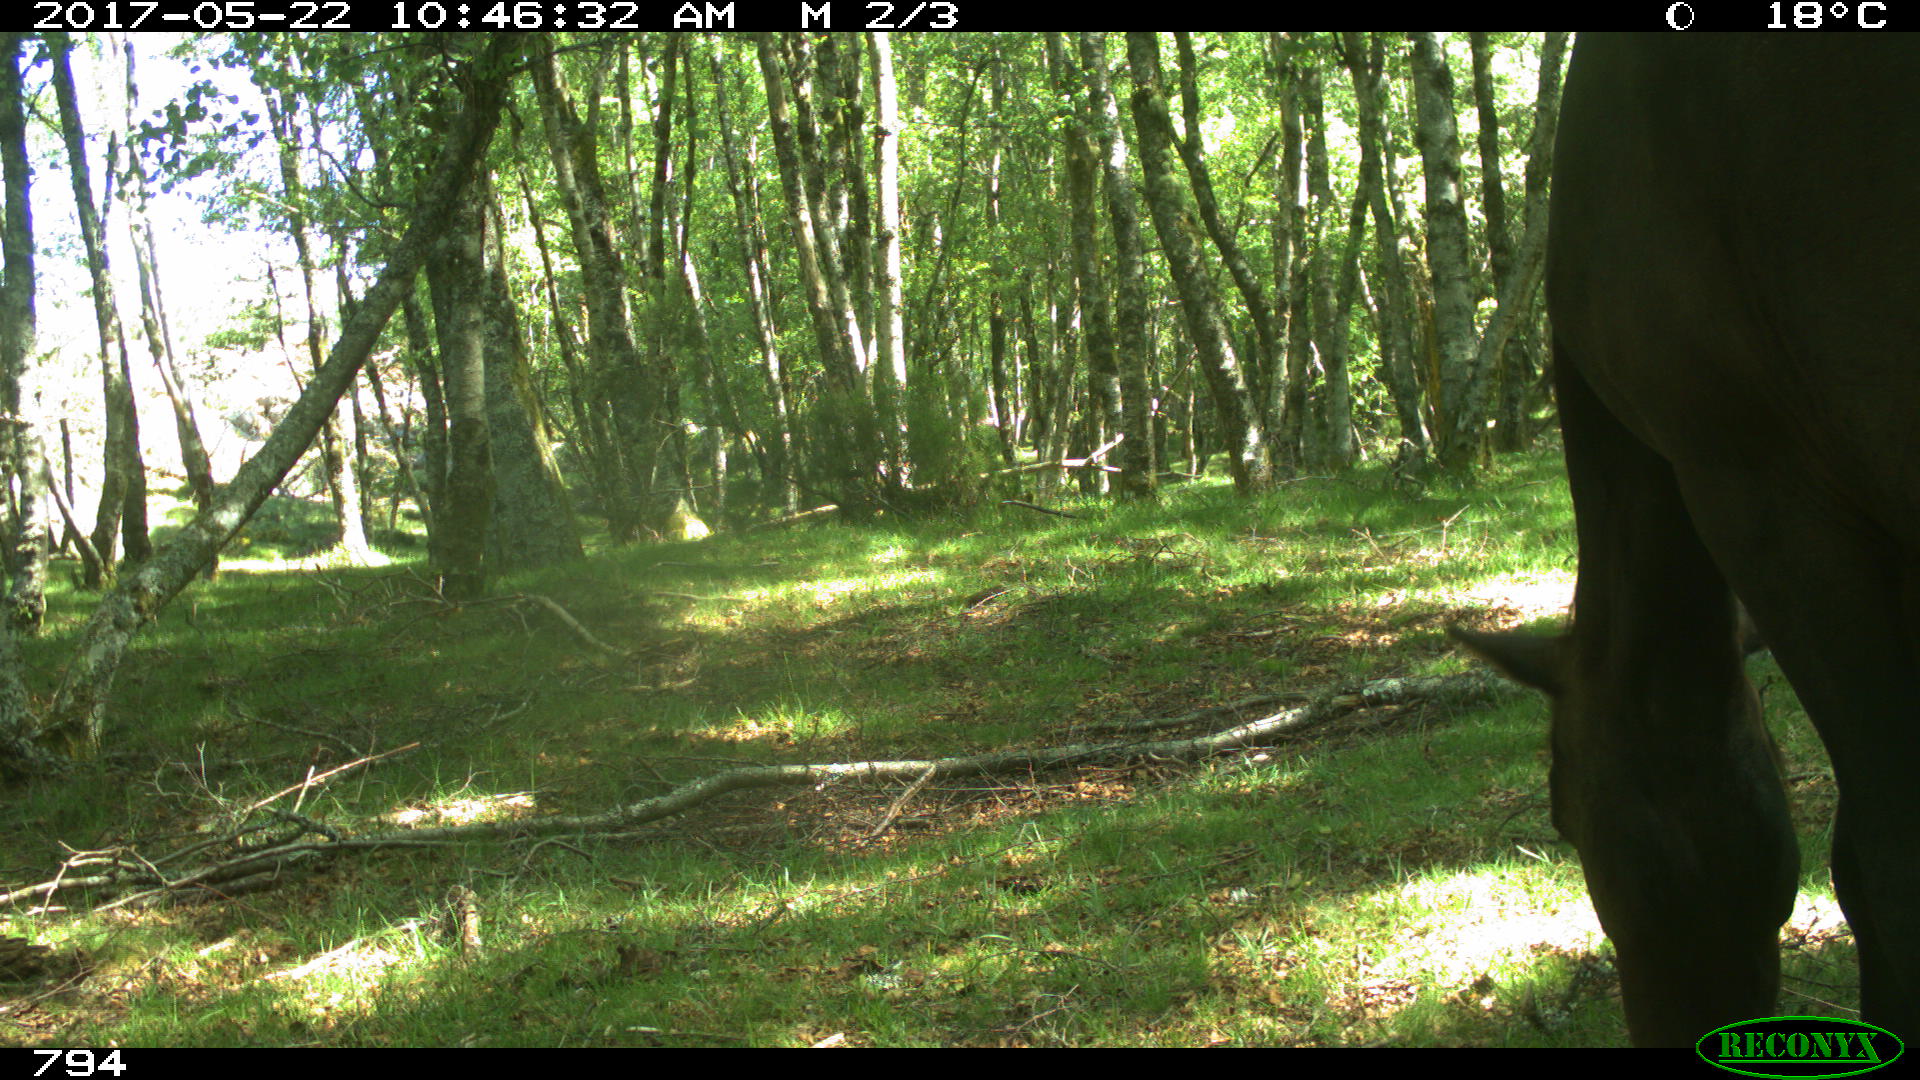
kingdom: Animalia
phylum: Chordata
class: Mammalia
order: Perissodactyla
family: Equidae
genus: Equus
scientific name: Equus caballus
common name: Horse
